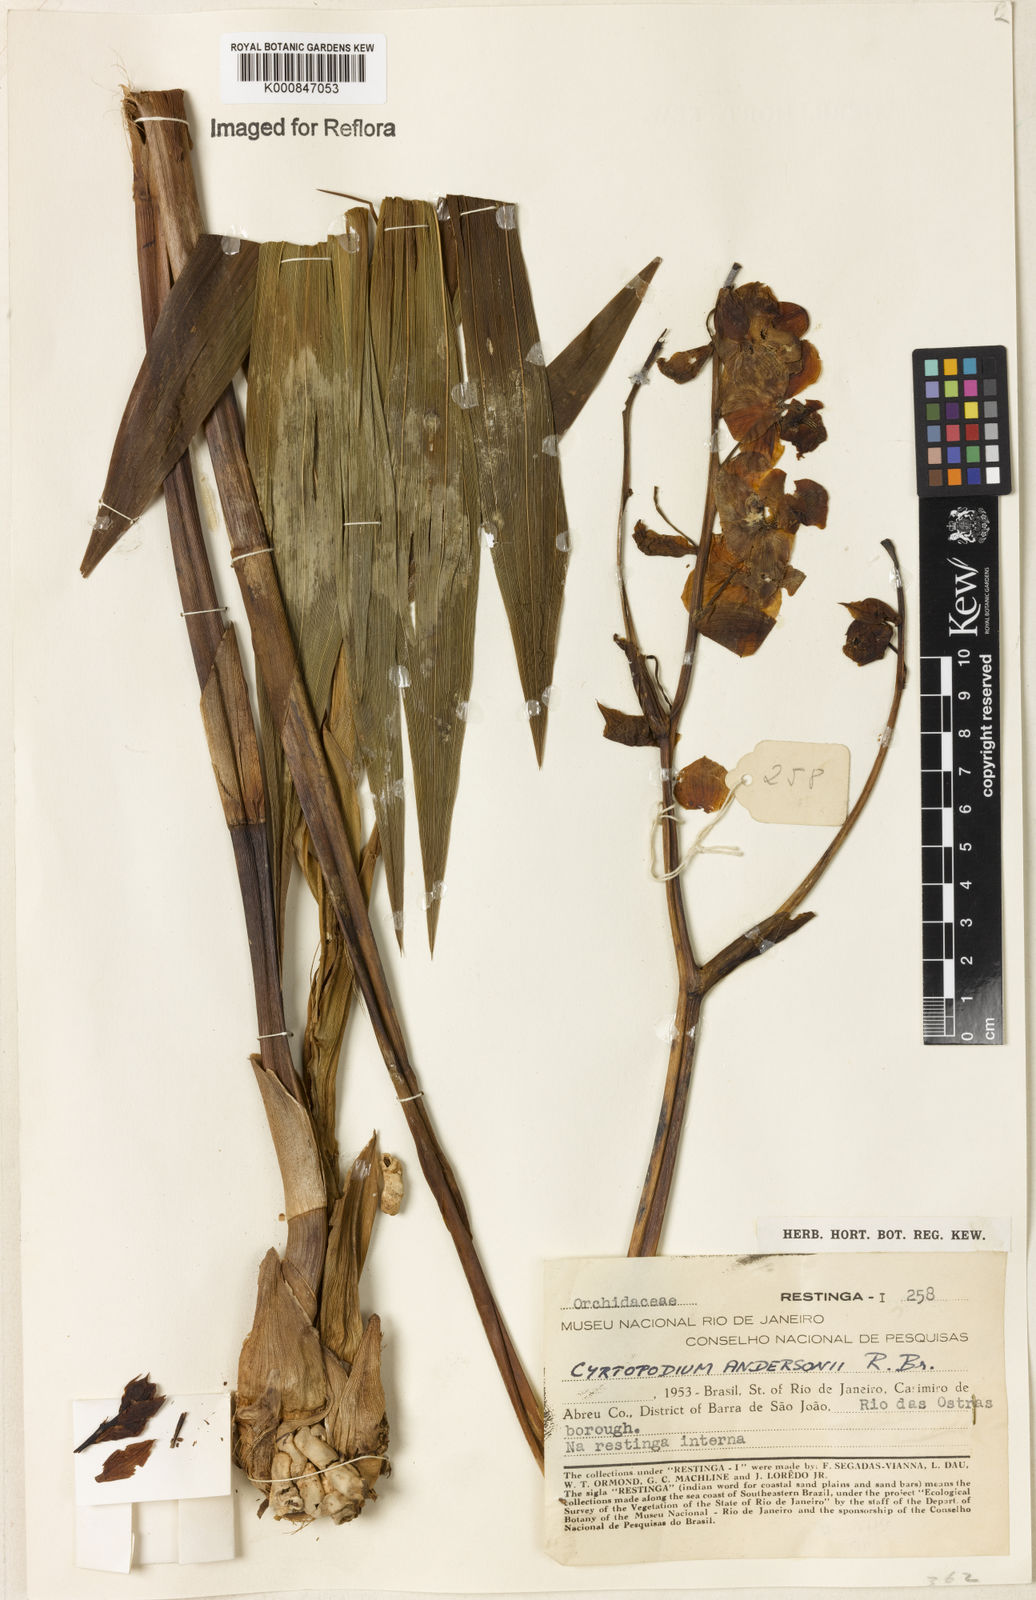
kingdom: Plantae
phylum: Tracheophyta
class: Liliopsida
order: Asparagales
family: Orchidaceae
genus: Cyrtopodium
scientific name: Cyrtopodium andersonii
